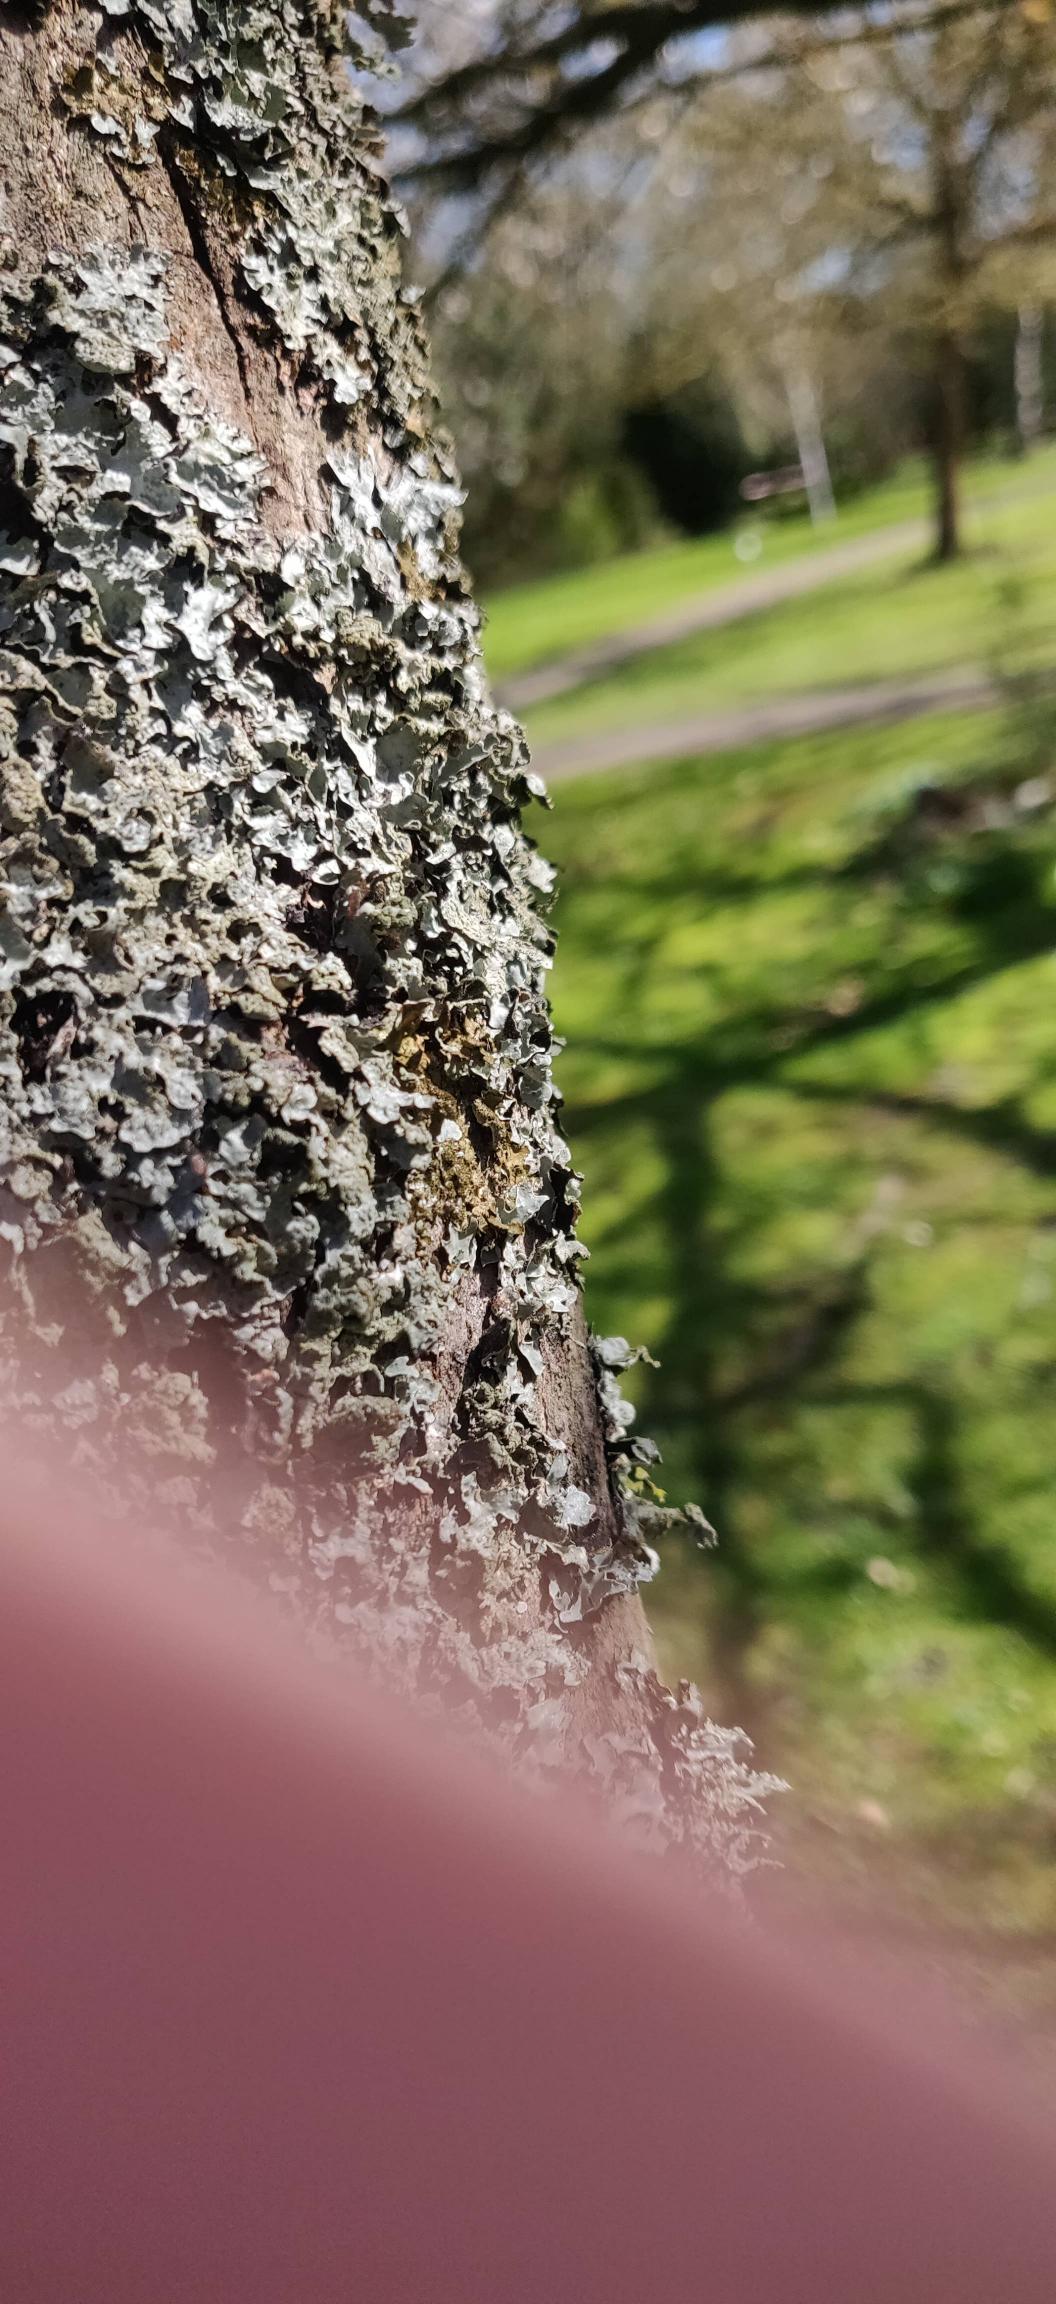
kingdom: Fungi
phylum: Ascomycota
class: Lecanoromycetes
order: Lecanorales
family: Parmeliaceae
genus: Parmelia
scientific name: Parmelia sulcata
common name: Rynket skållav
